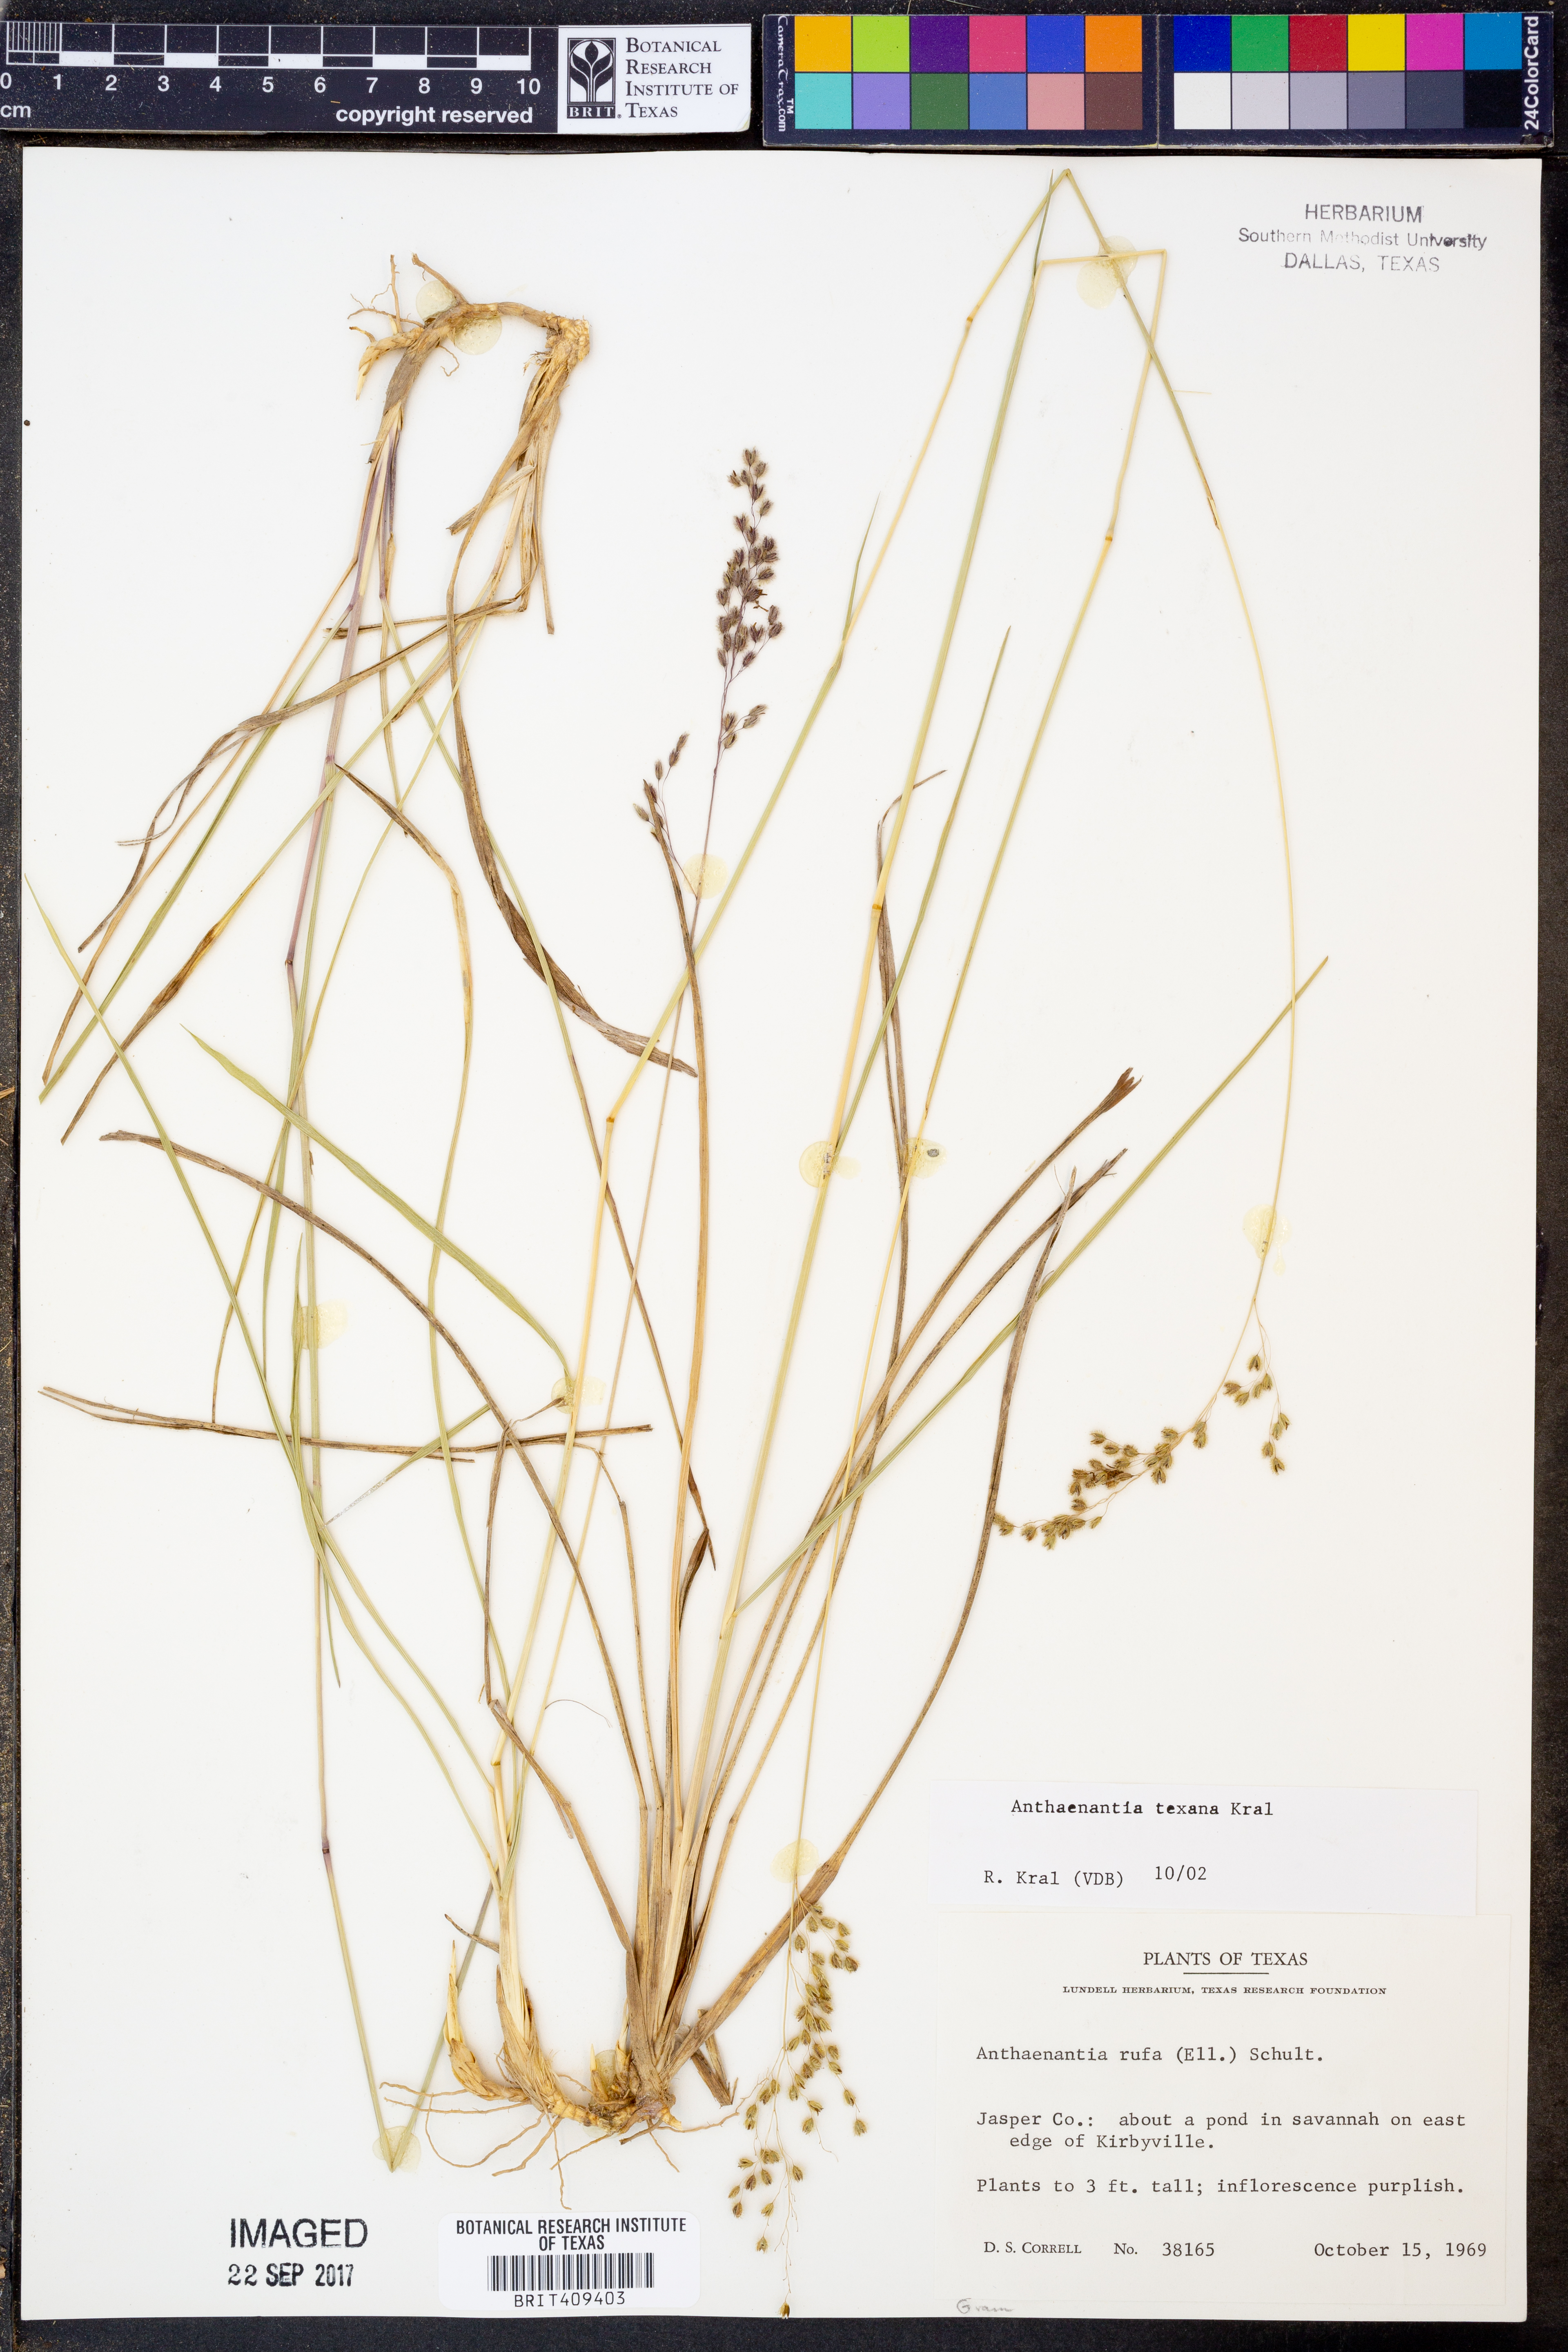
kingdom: Plantae
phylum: Tracheophyta
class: Liliopsida
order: Poales
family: Poaceae
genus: Anthaenantia
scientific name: Anthaenantia texana
